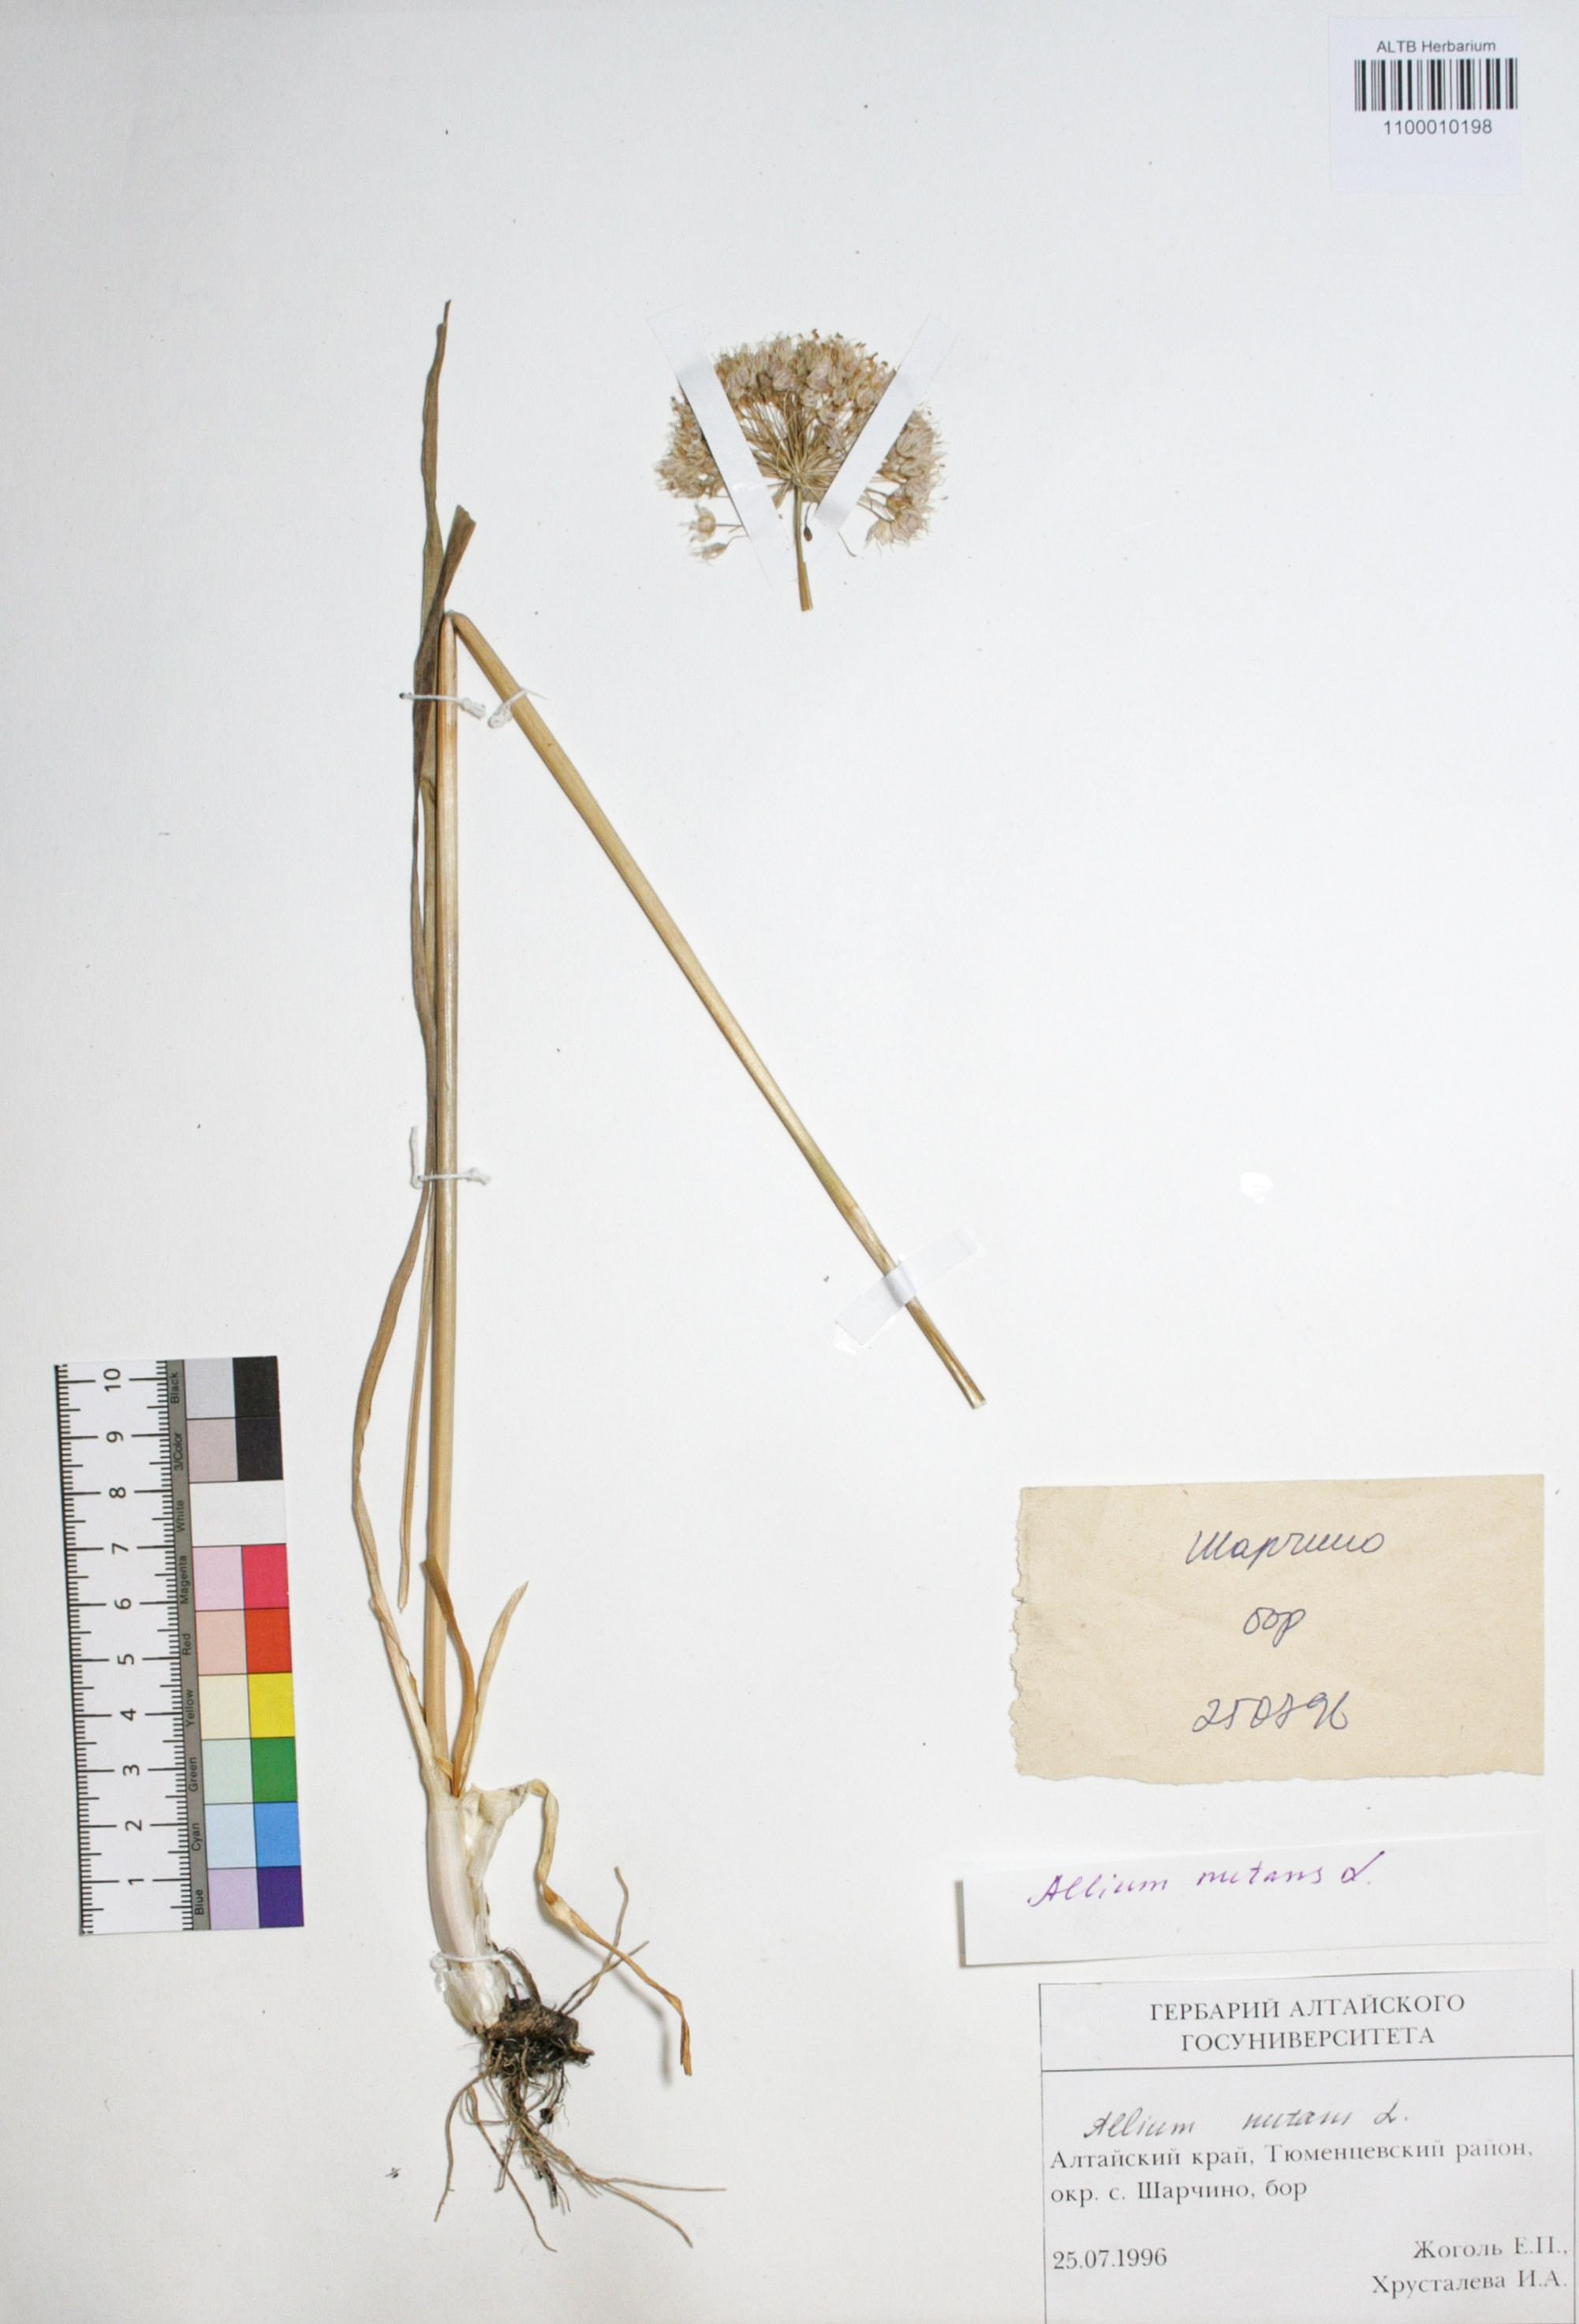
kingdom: Plantae
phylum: Tracheophyta
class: Liliopsida
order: Asparagales
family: Amaryllidaceae
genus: Allium
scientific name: Allium nutans
